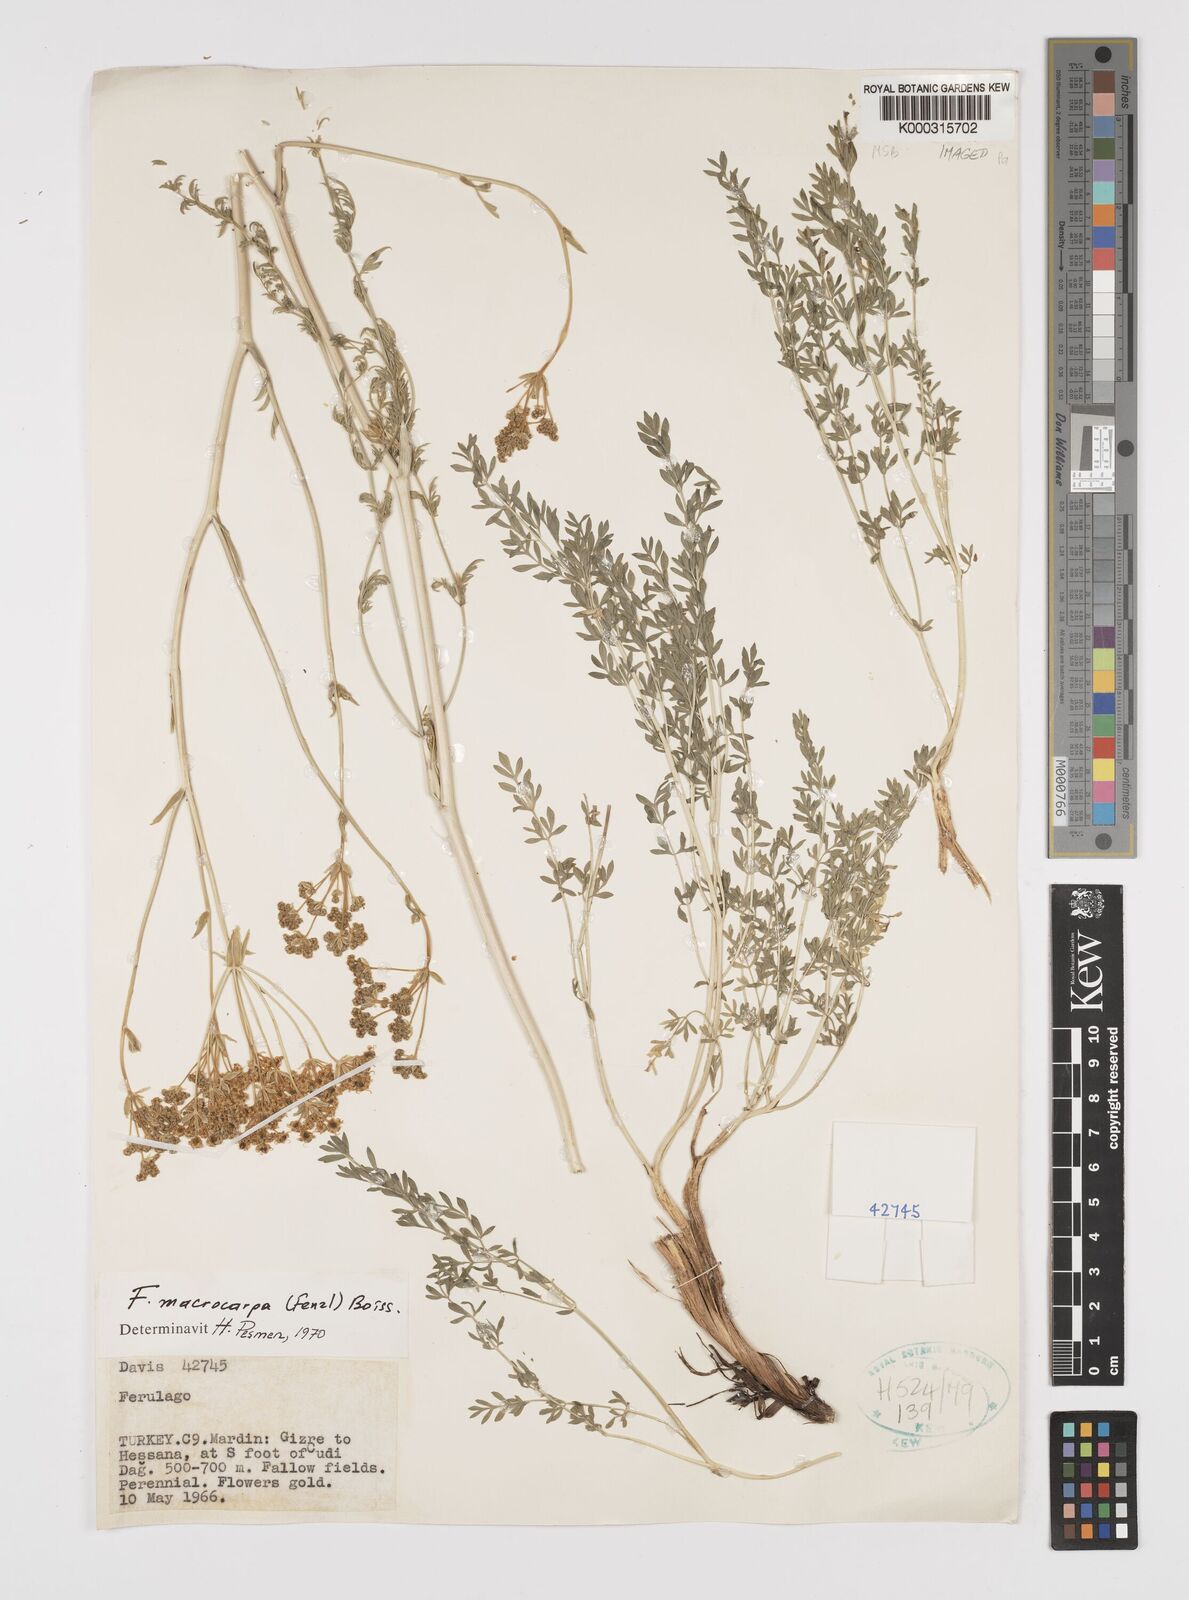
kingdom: Plantae
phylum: Tracheophyta
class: Magnoliopsida
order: Apiales
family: Apiaceae
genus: Ferulago
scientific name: Ferulago macrocarpa
